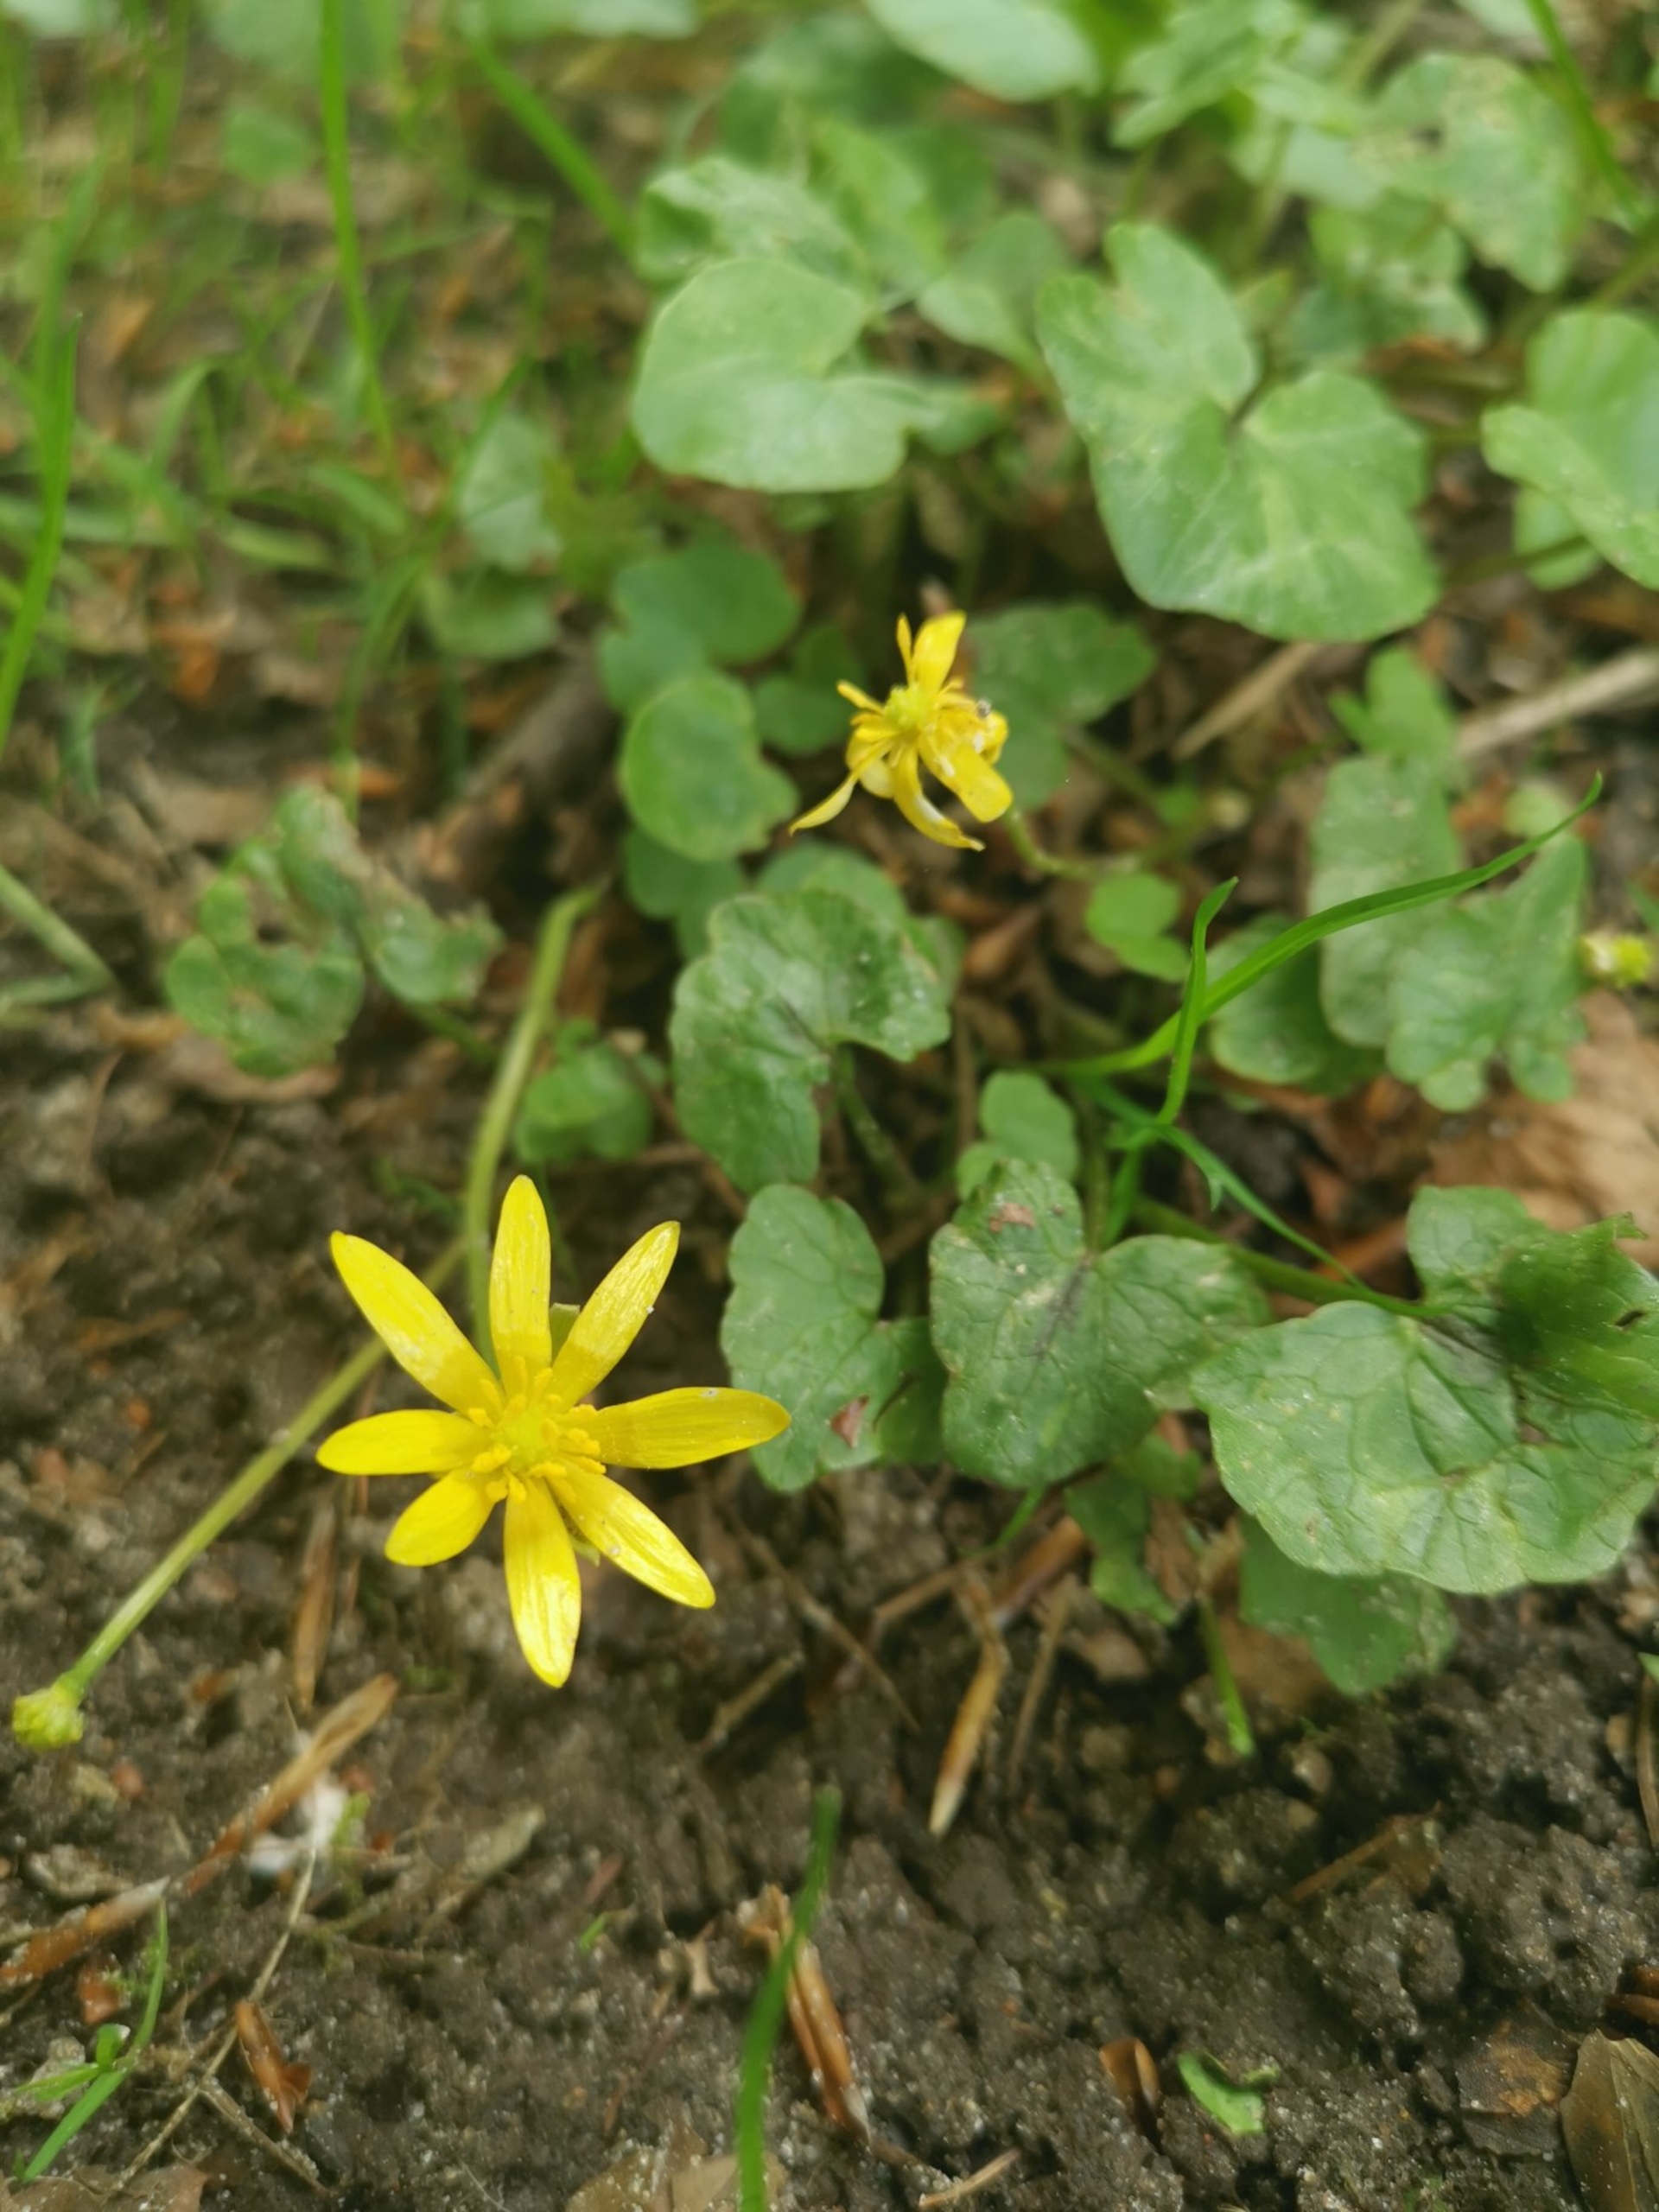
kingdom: Plantae
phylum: Tracheophyta
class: Magnoliopsida
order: Ranunculales
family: Ranunculaceae
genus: Ficaria
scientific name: Ficaria verna
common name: Vorterod
